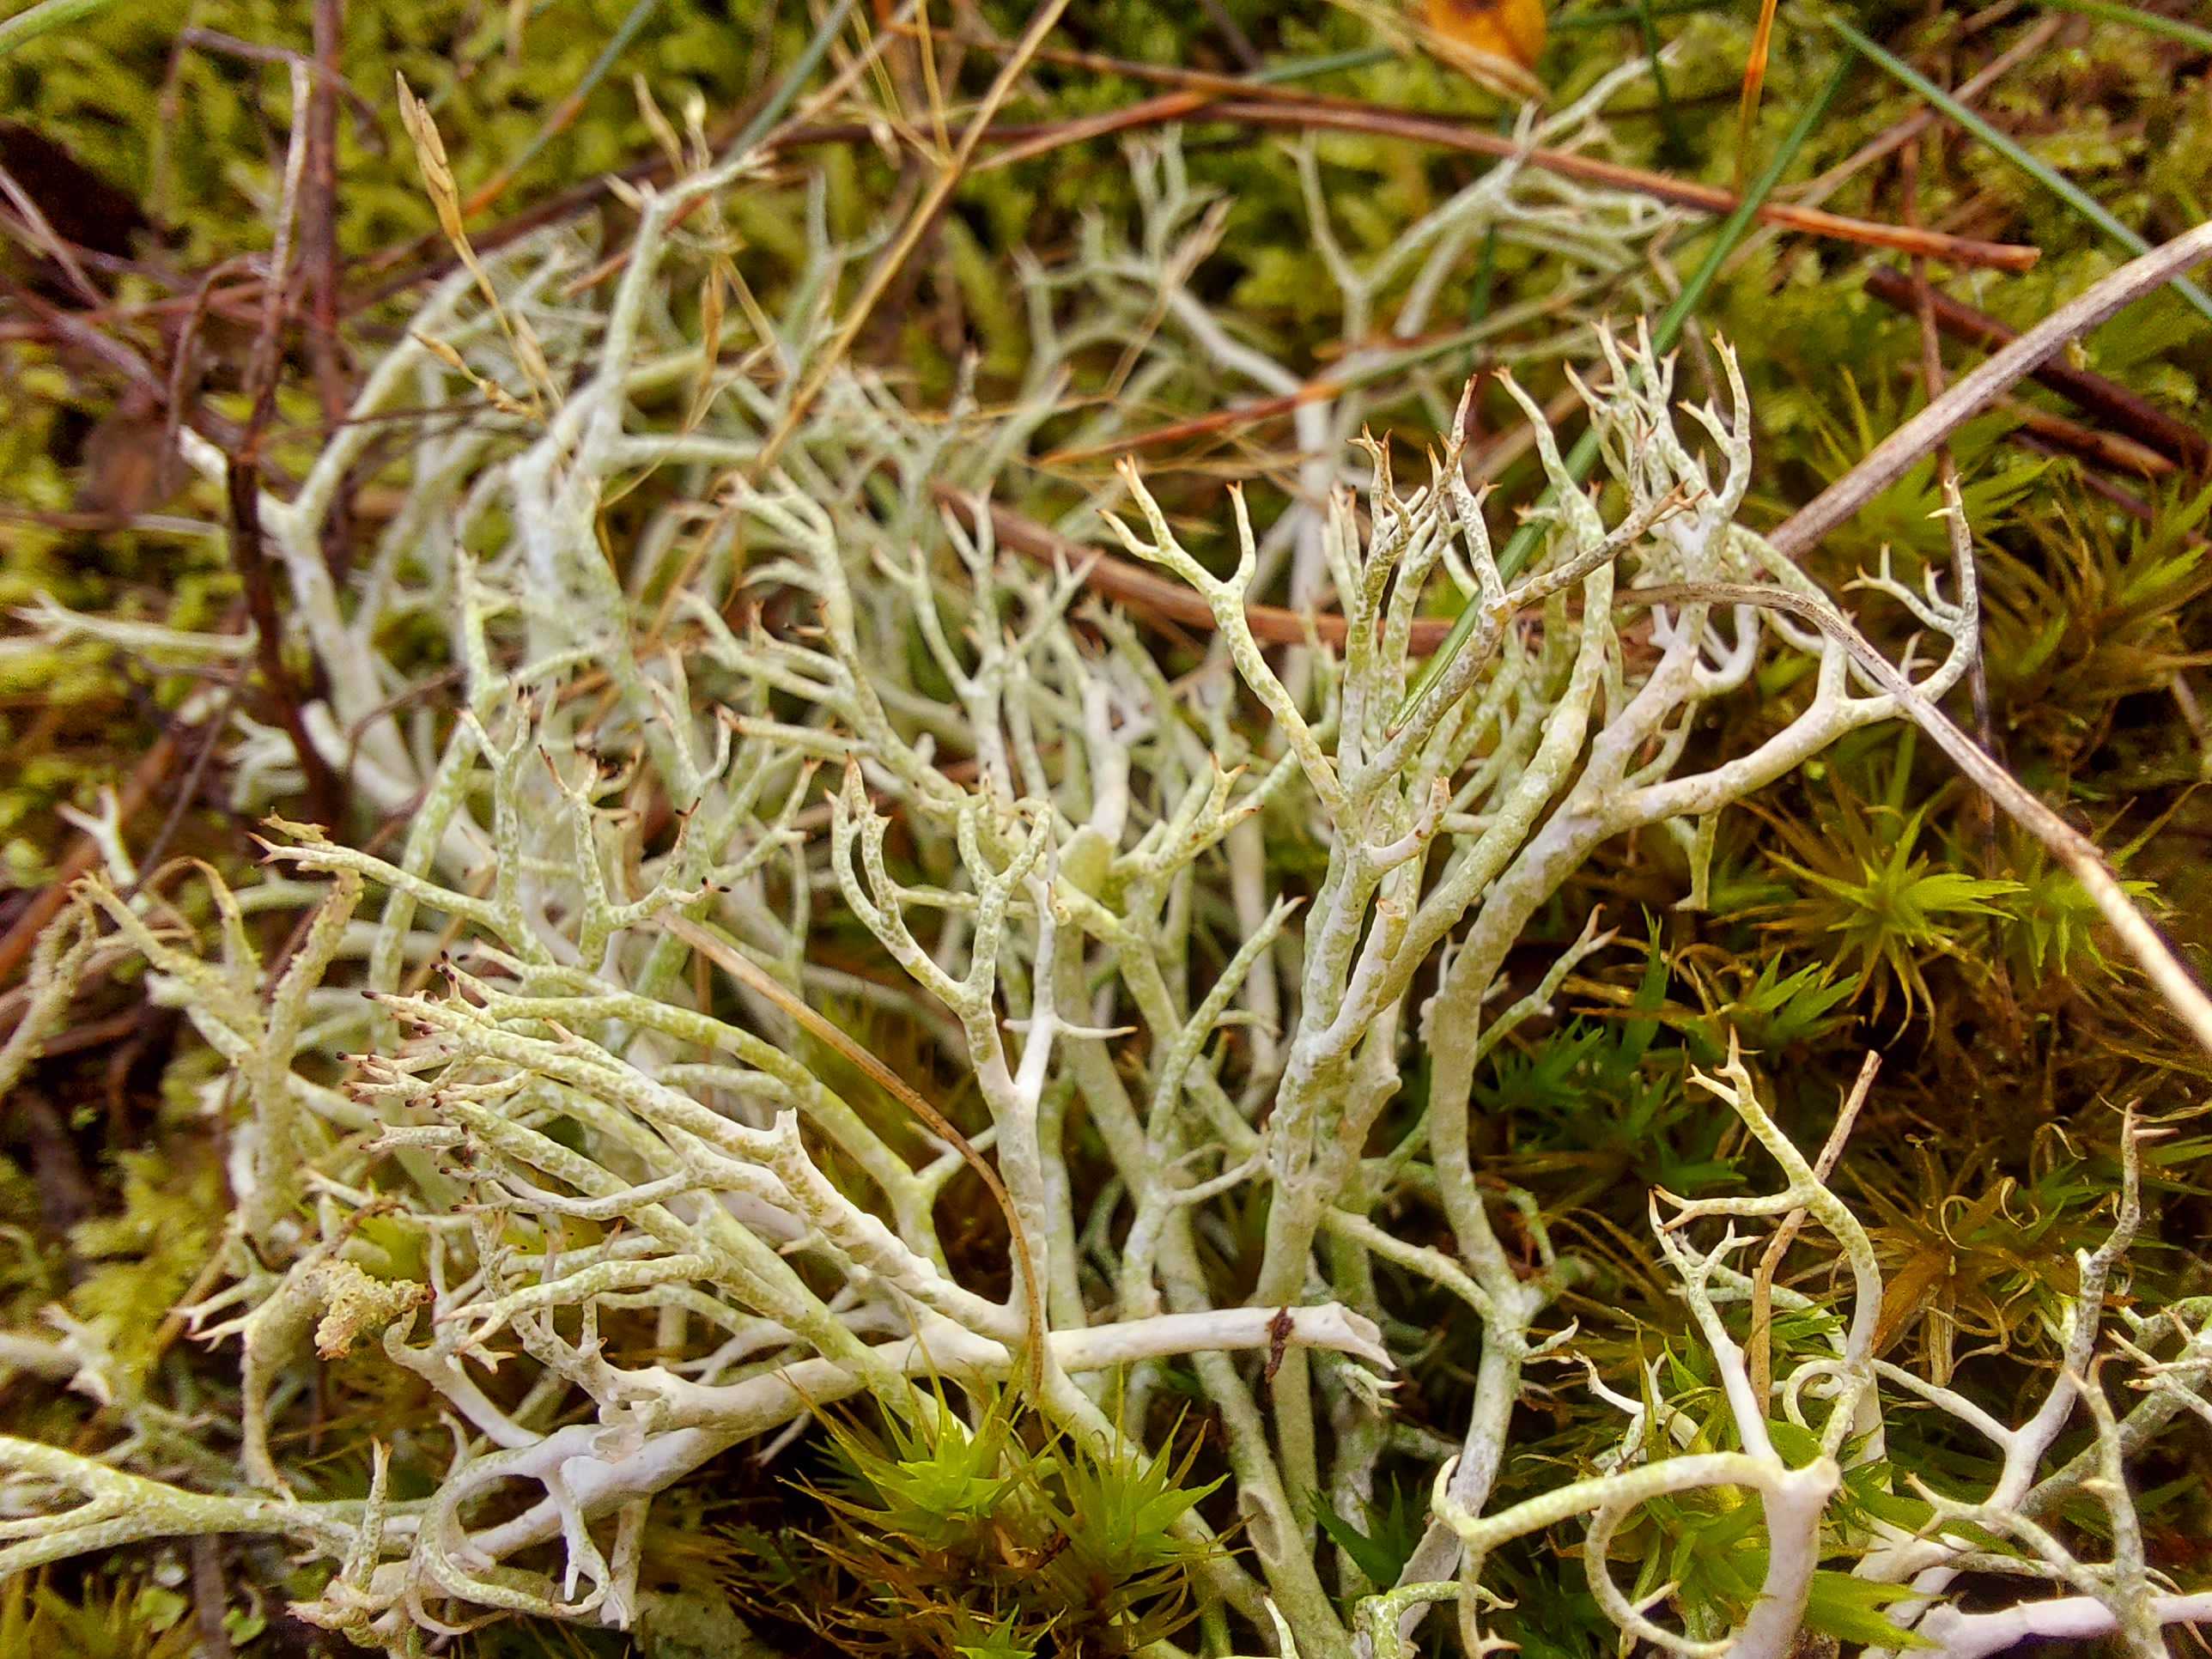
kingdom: Fungi
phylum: Ascomycota
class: Lecanoromycetes
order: Lecanorales
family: Cladoniaceae
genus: Cladonia
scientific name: Cladonia rangiformis
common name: spættet bægerlav
